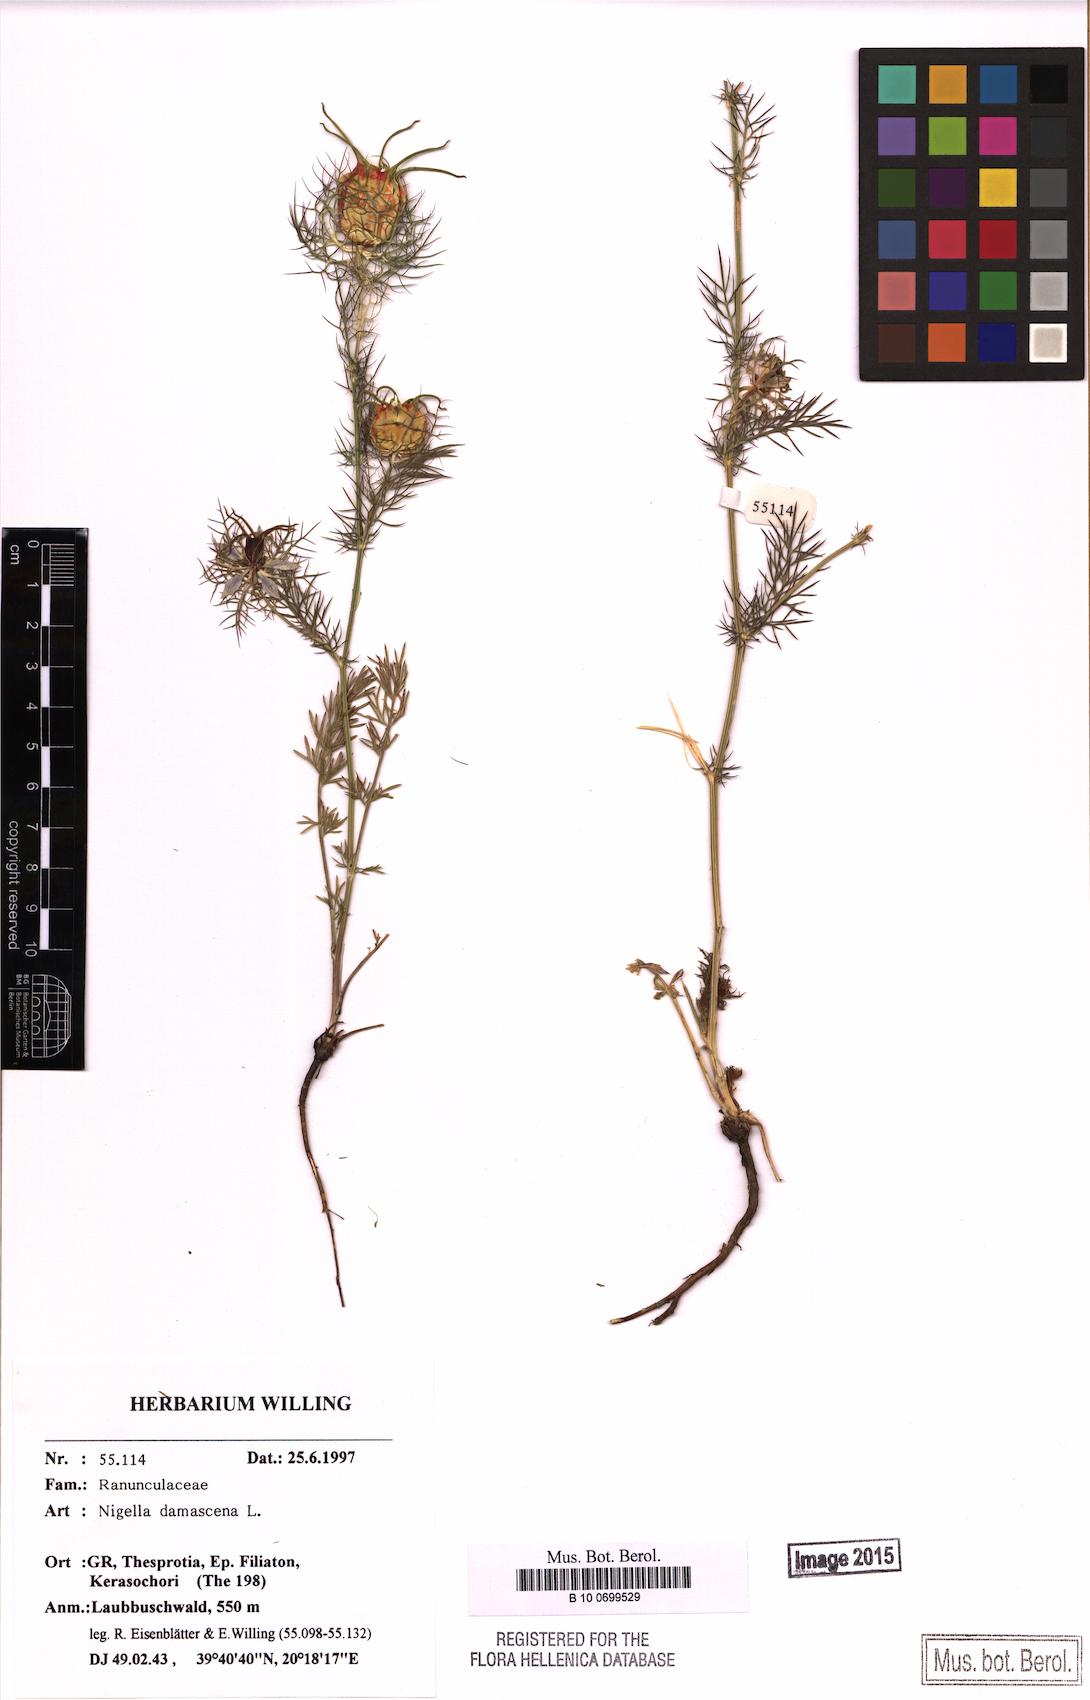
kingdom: Plantae
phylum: Tracheophyta
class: Magnoliopsida
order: Ranunculales
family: Ranunculaceae
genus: Nigella
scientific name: Nigella damascena
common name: Love-in-a-mist
